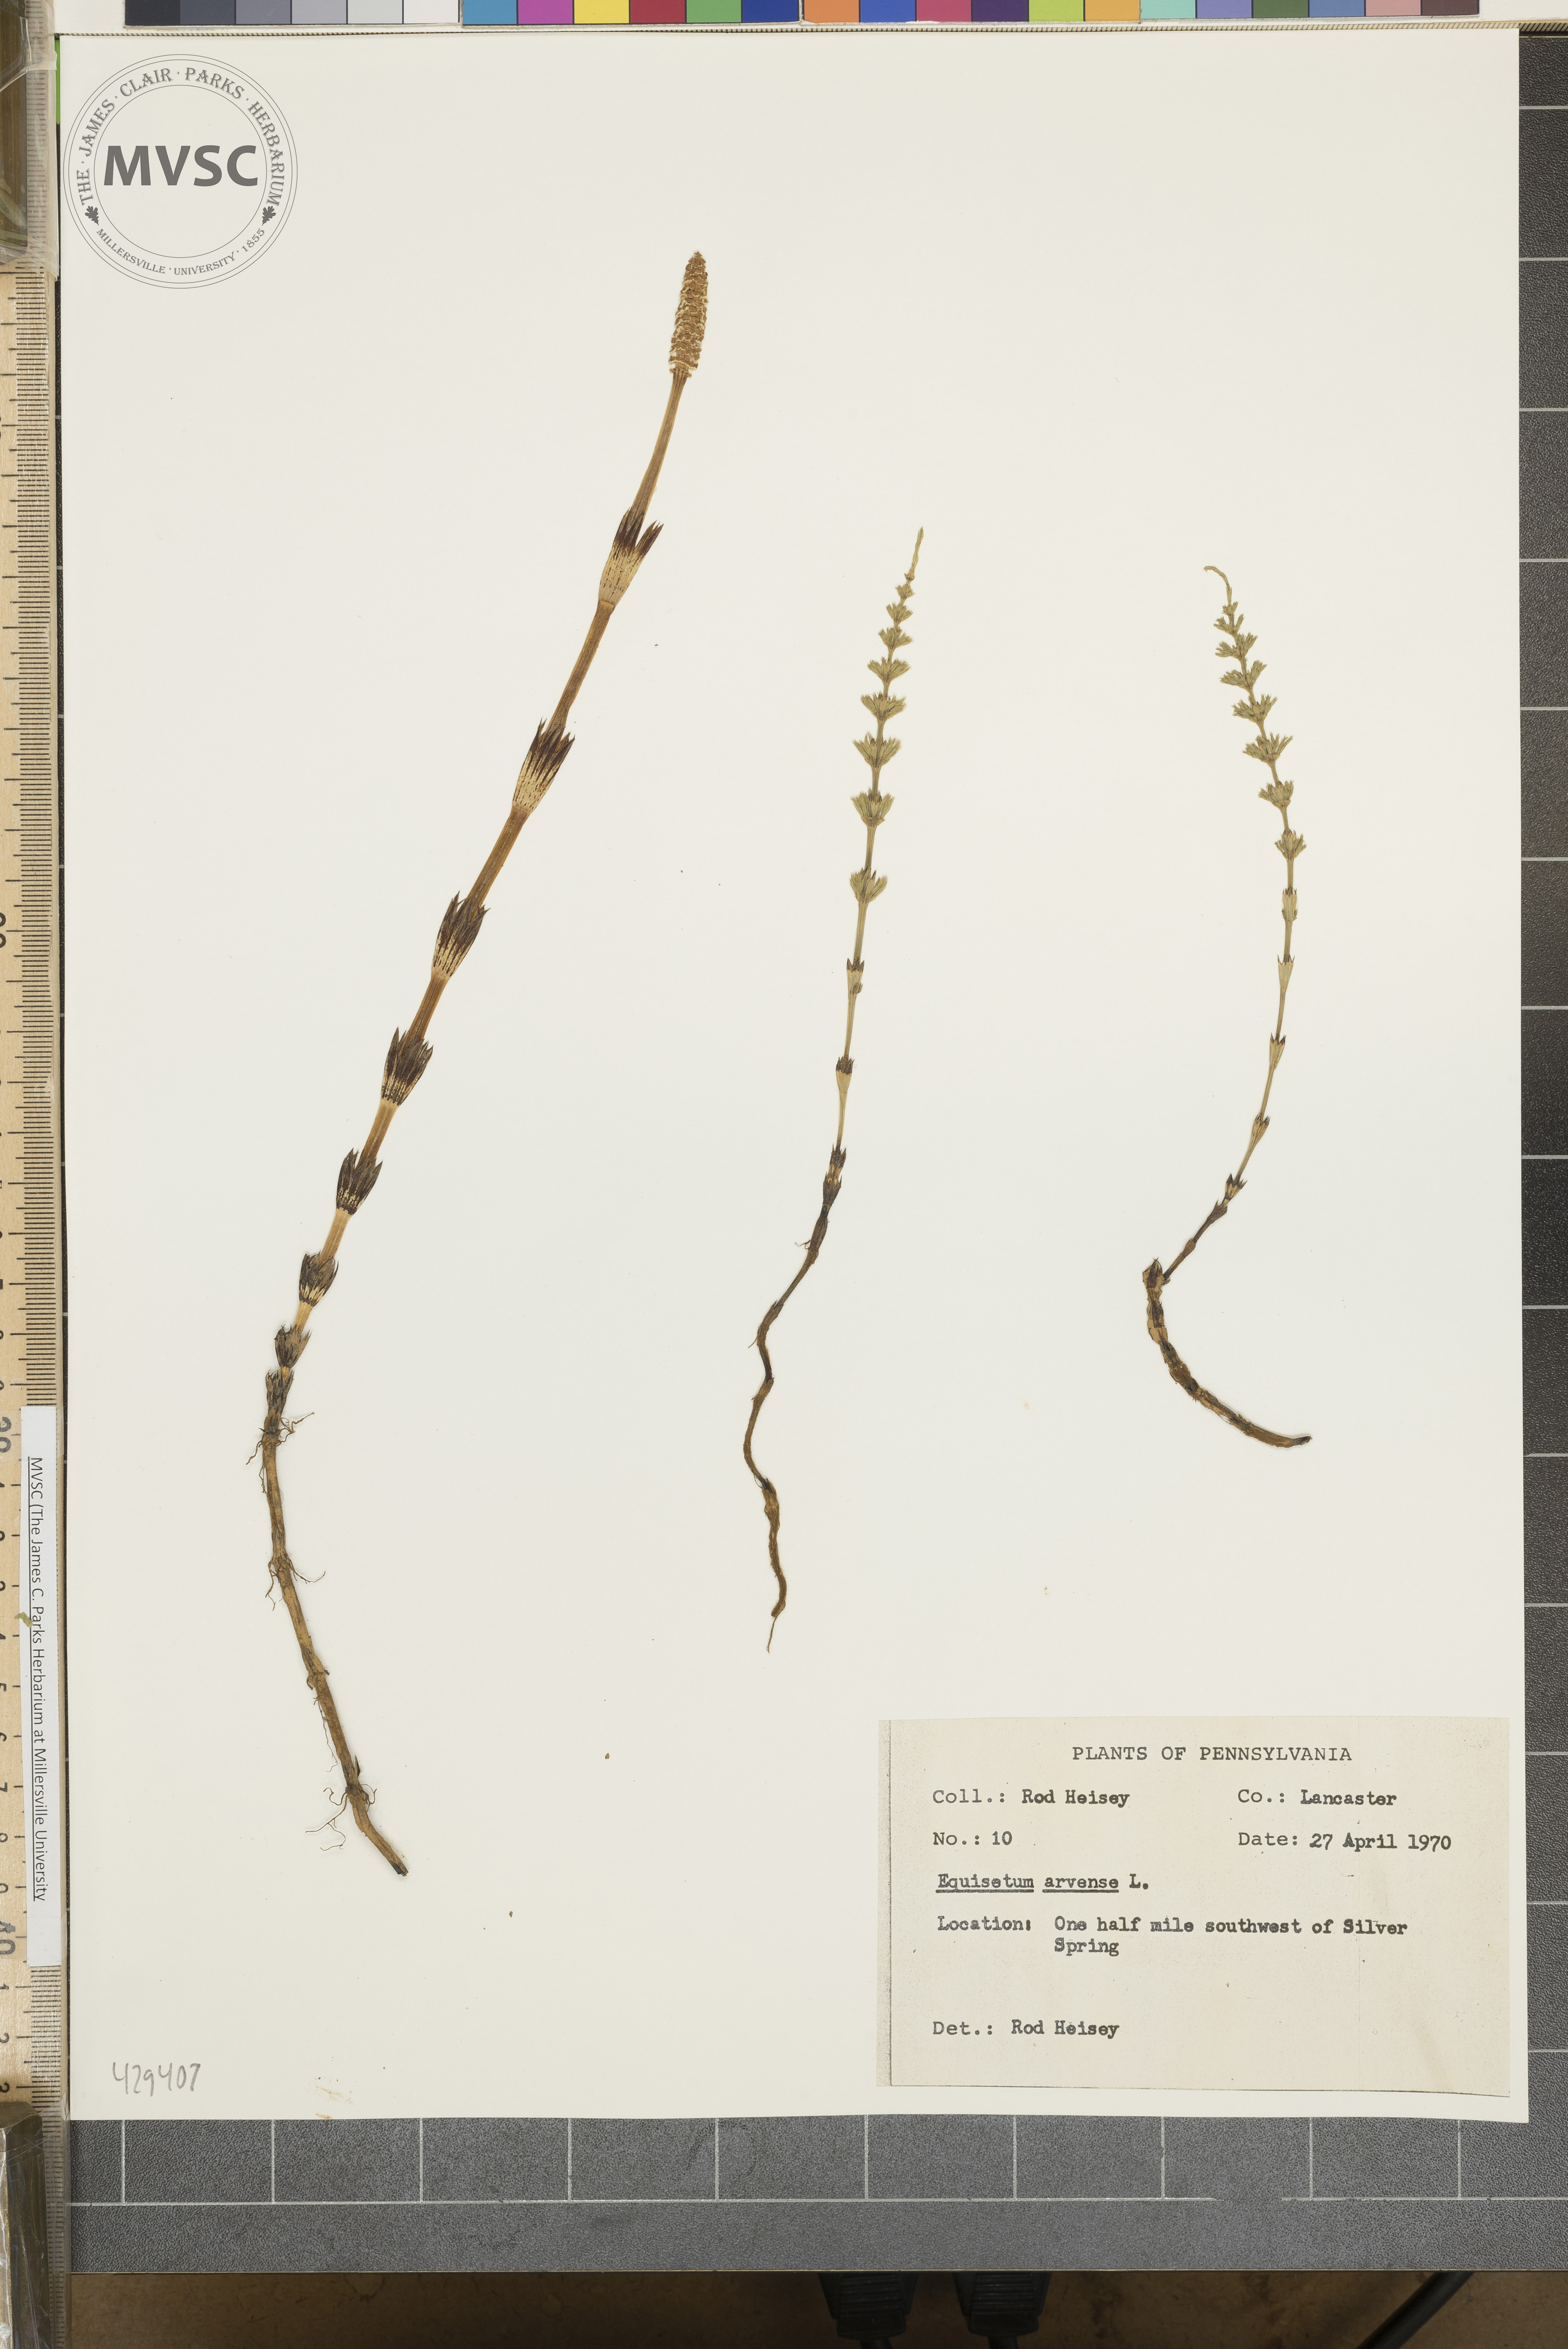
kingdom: Plantae
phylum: Tracheophyta
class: Polypodiopsida
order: Equisetales
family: Equisetaceae
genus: Equisetum
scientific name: Equisetum arvense
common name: Field horsetail
